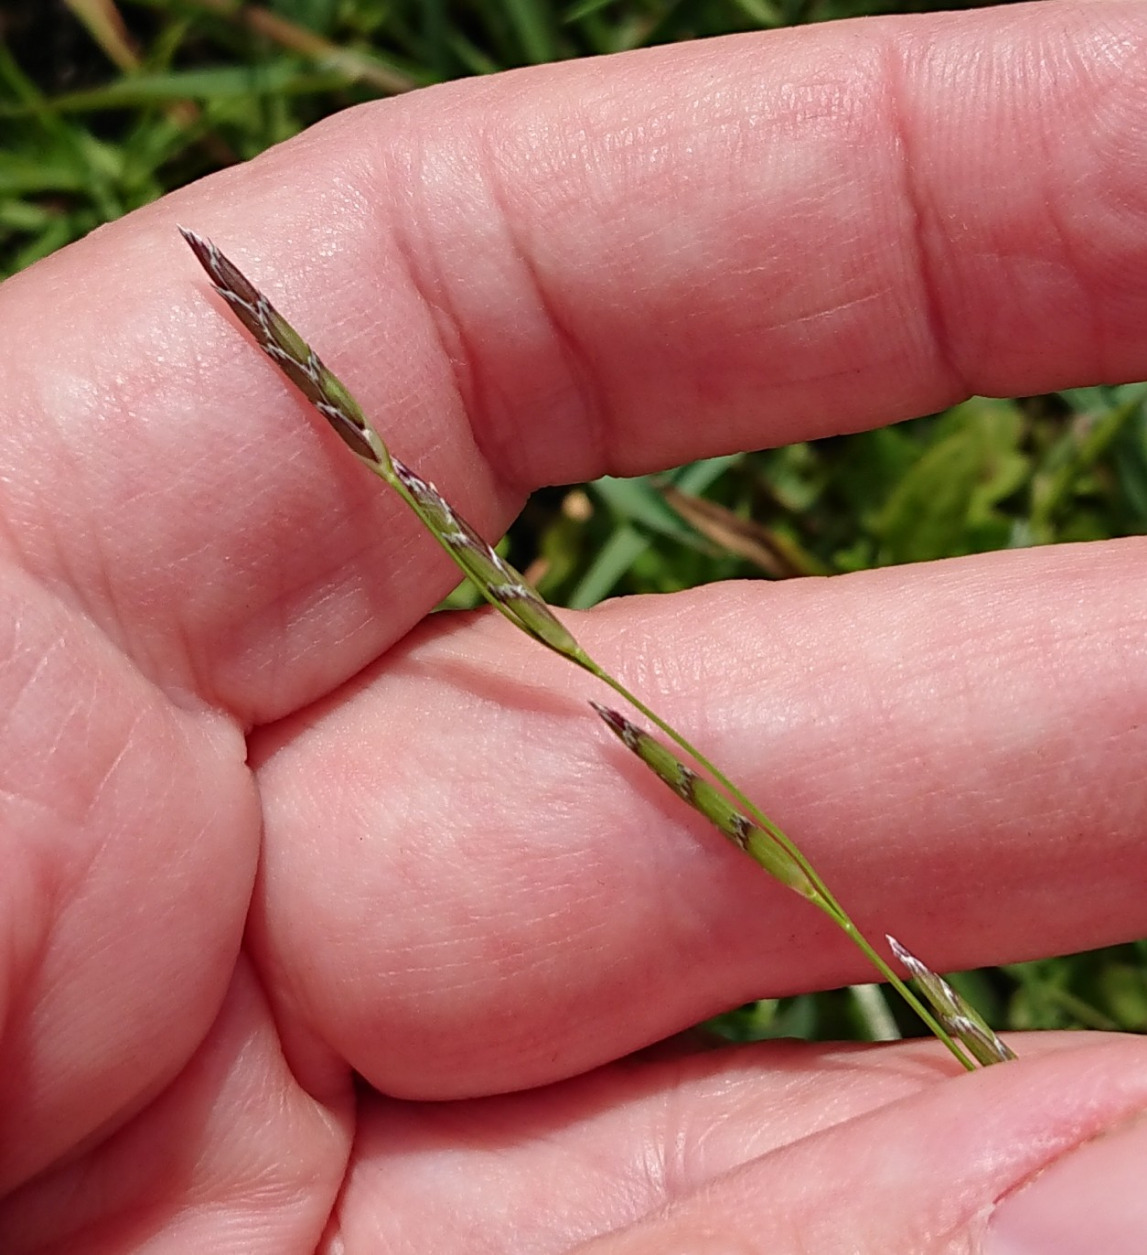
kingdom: Plantae
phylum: Tracheophyta
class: Liliopsida
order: Poales
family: Poaceae
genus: Glyceria
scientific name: Glyceria declinata
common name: Tandet sødgræs
